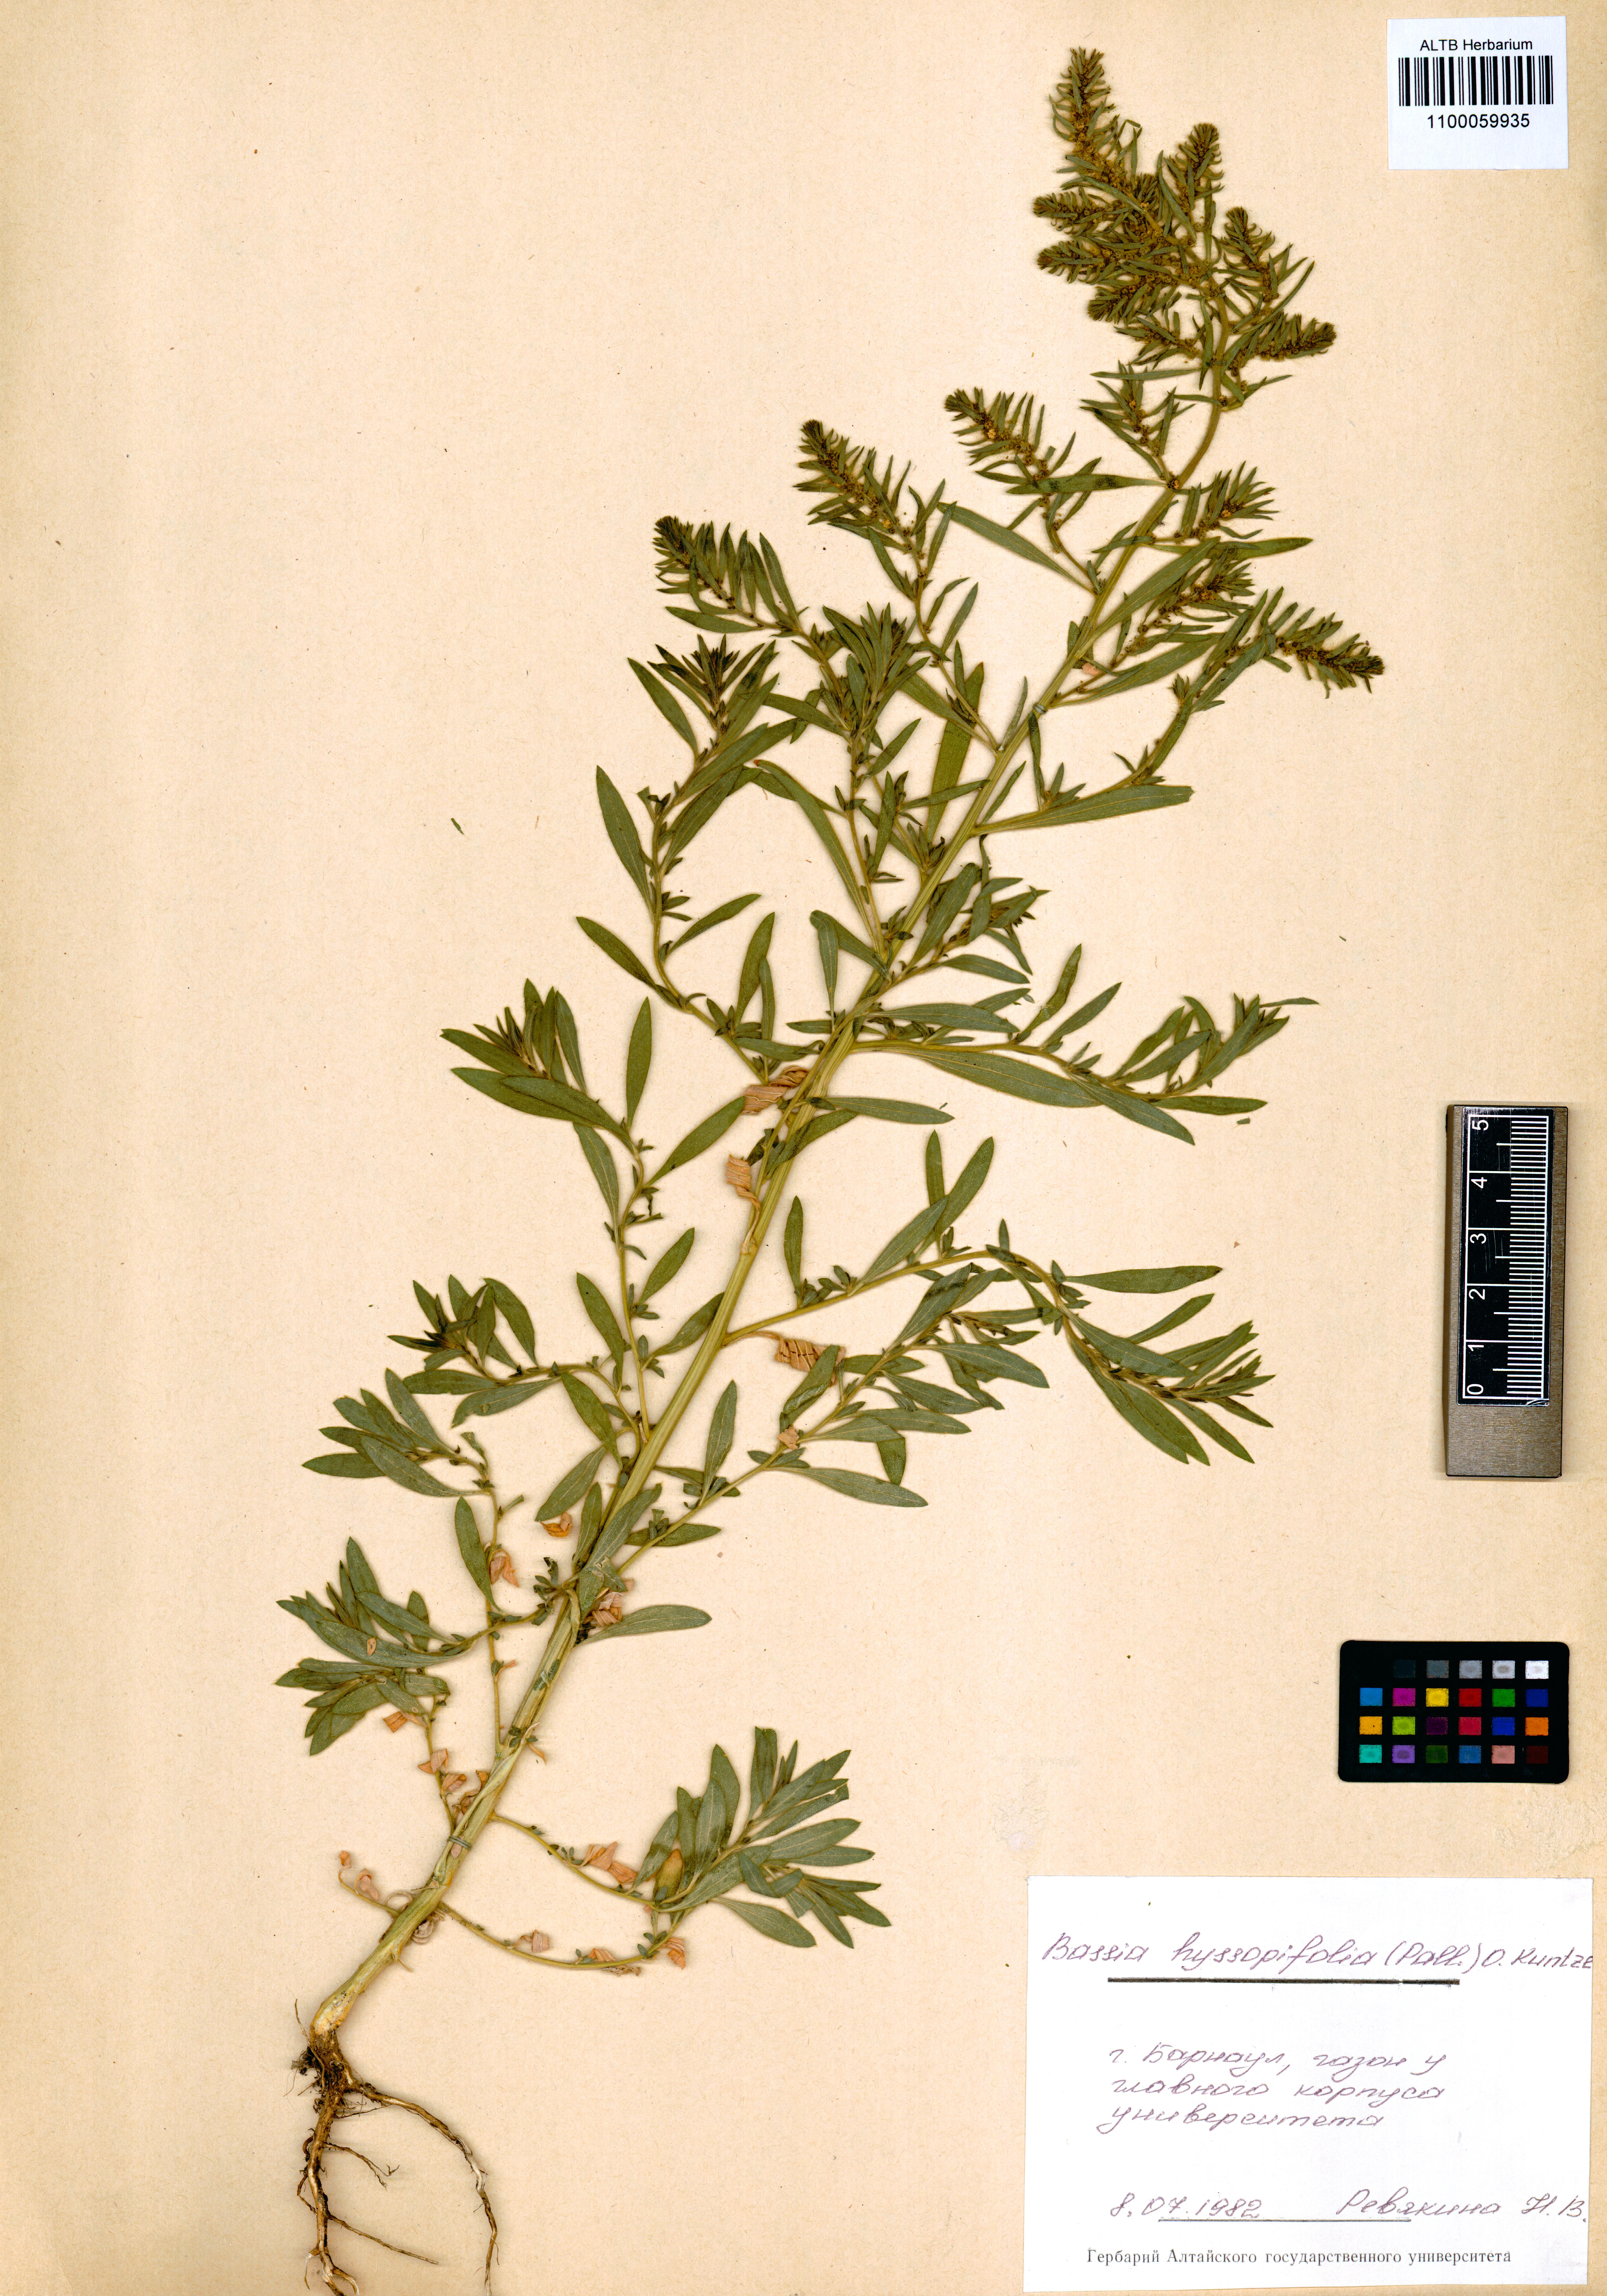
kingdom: Plantae
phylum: Tracheophyta
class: Magnoliopsida
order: Caryophyllales
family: Amaranthaceae
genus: Bassia
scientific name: Bassia hyssopifolia
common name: Fivehorn smotherweed
